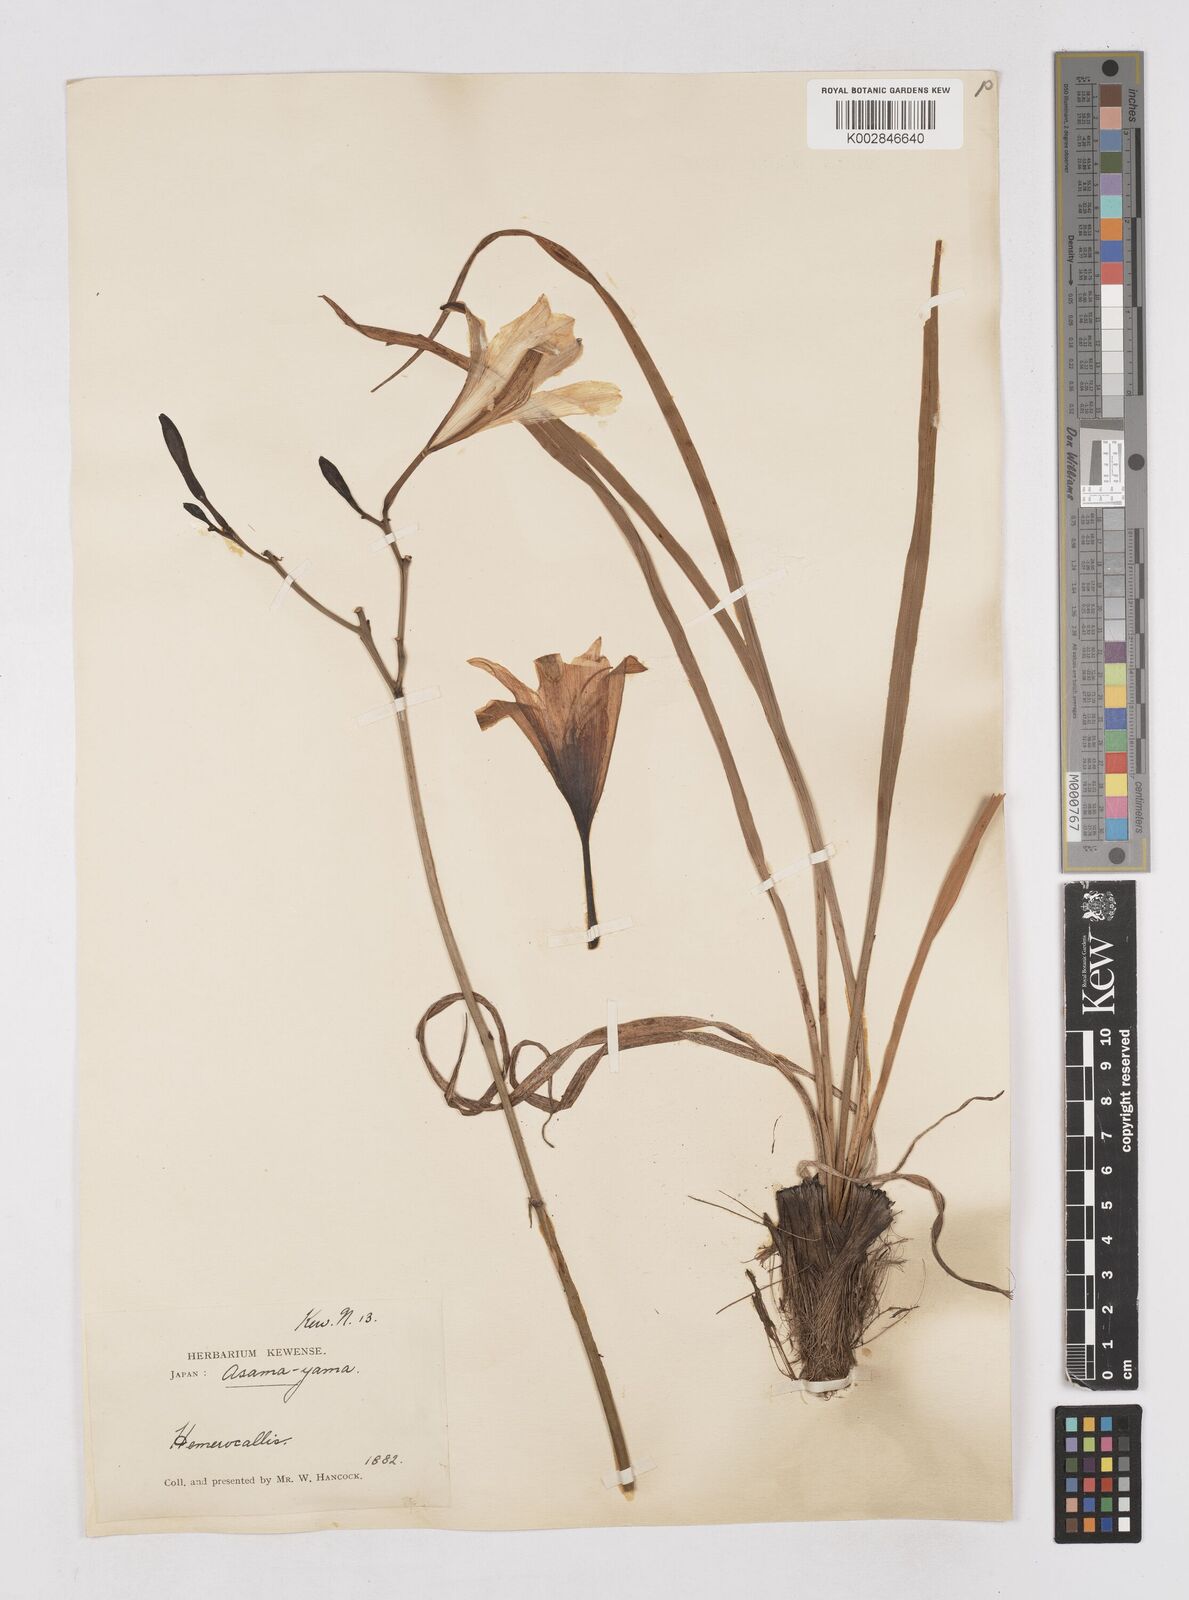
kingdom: Plantae
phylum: Tracheophyta
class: Liliopsida
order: Asparagales
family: Asphodelaceae
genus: Hemerocallis
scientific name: Hemerocallis minor
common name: Small daylily
